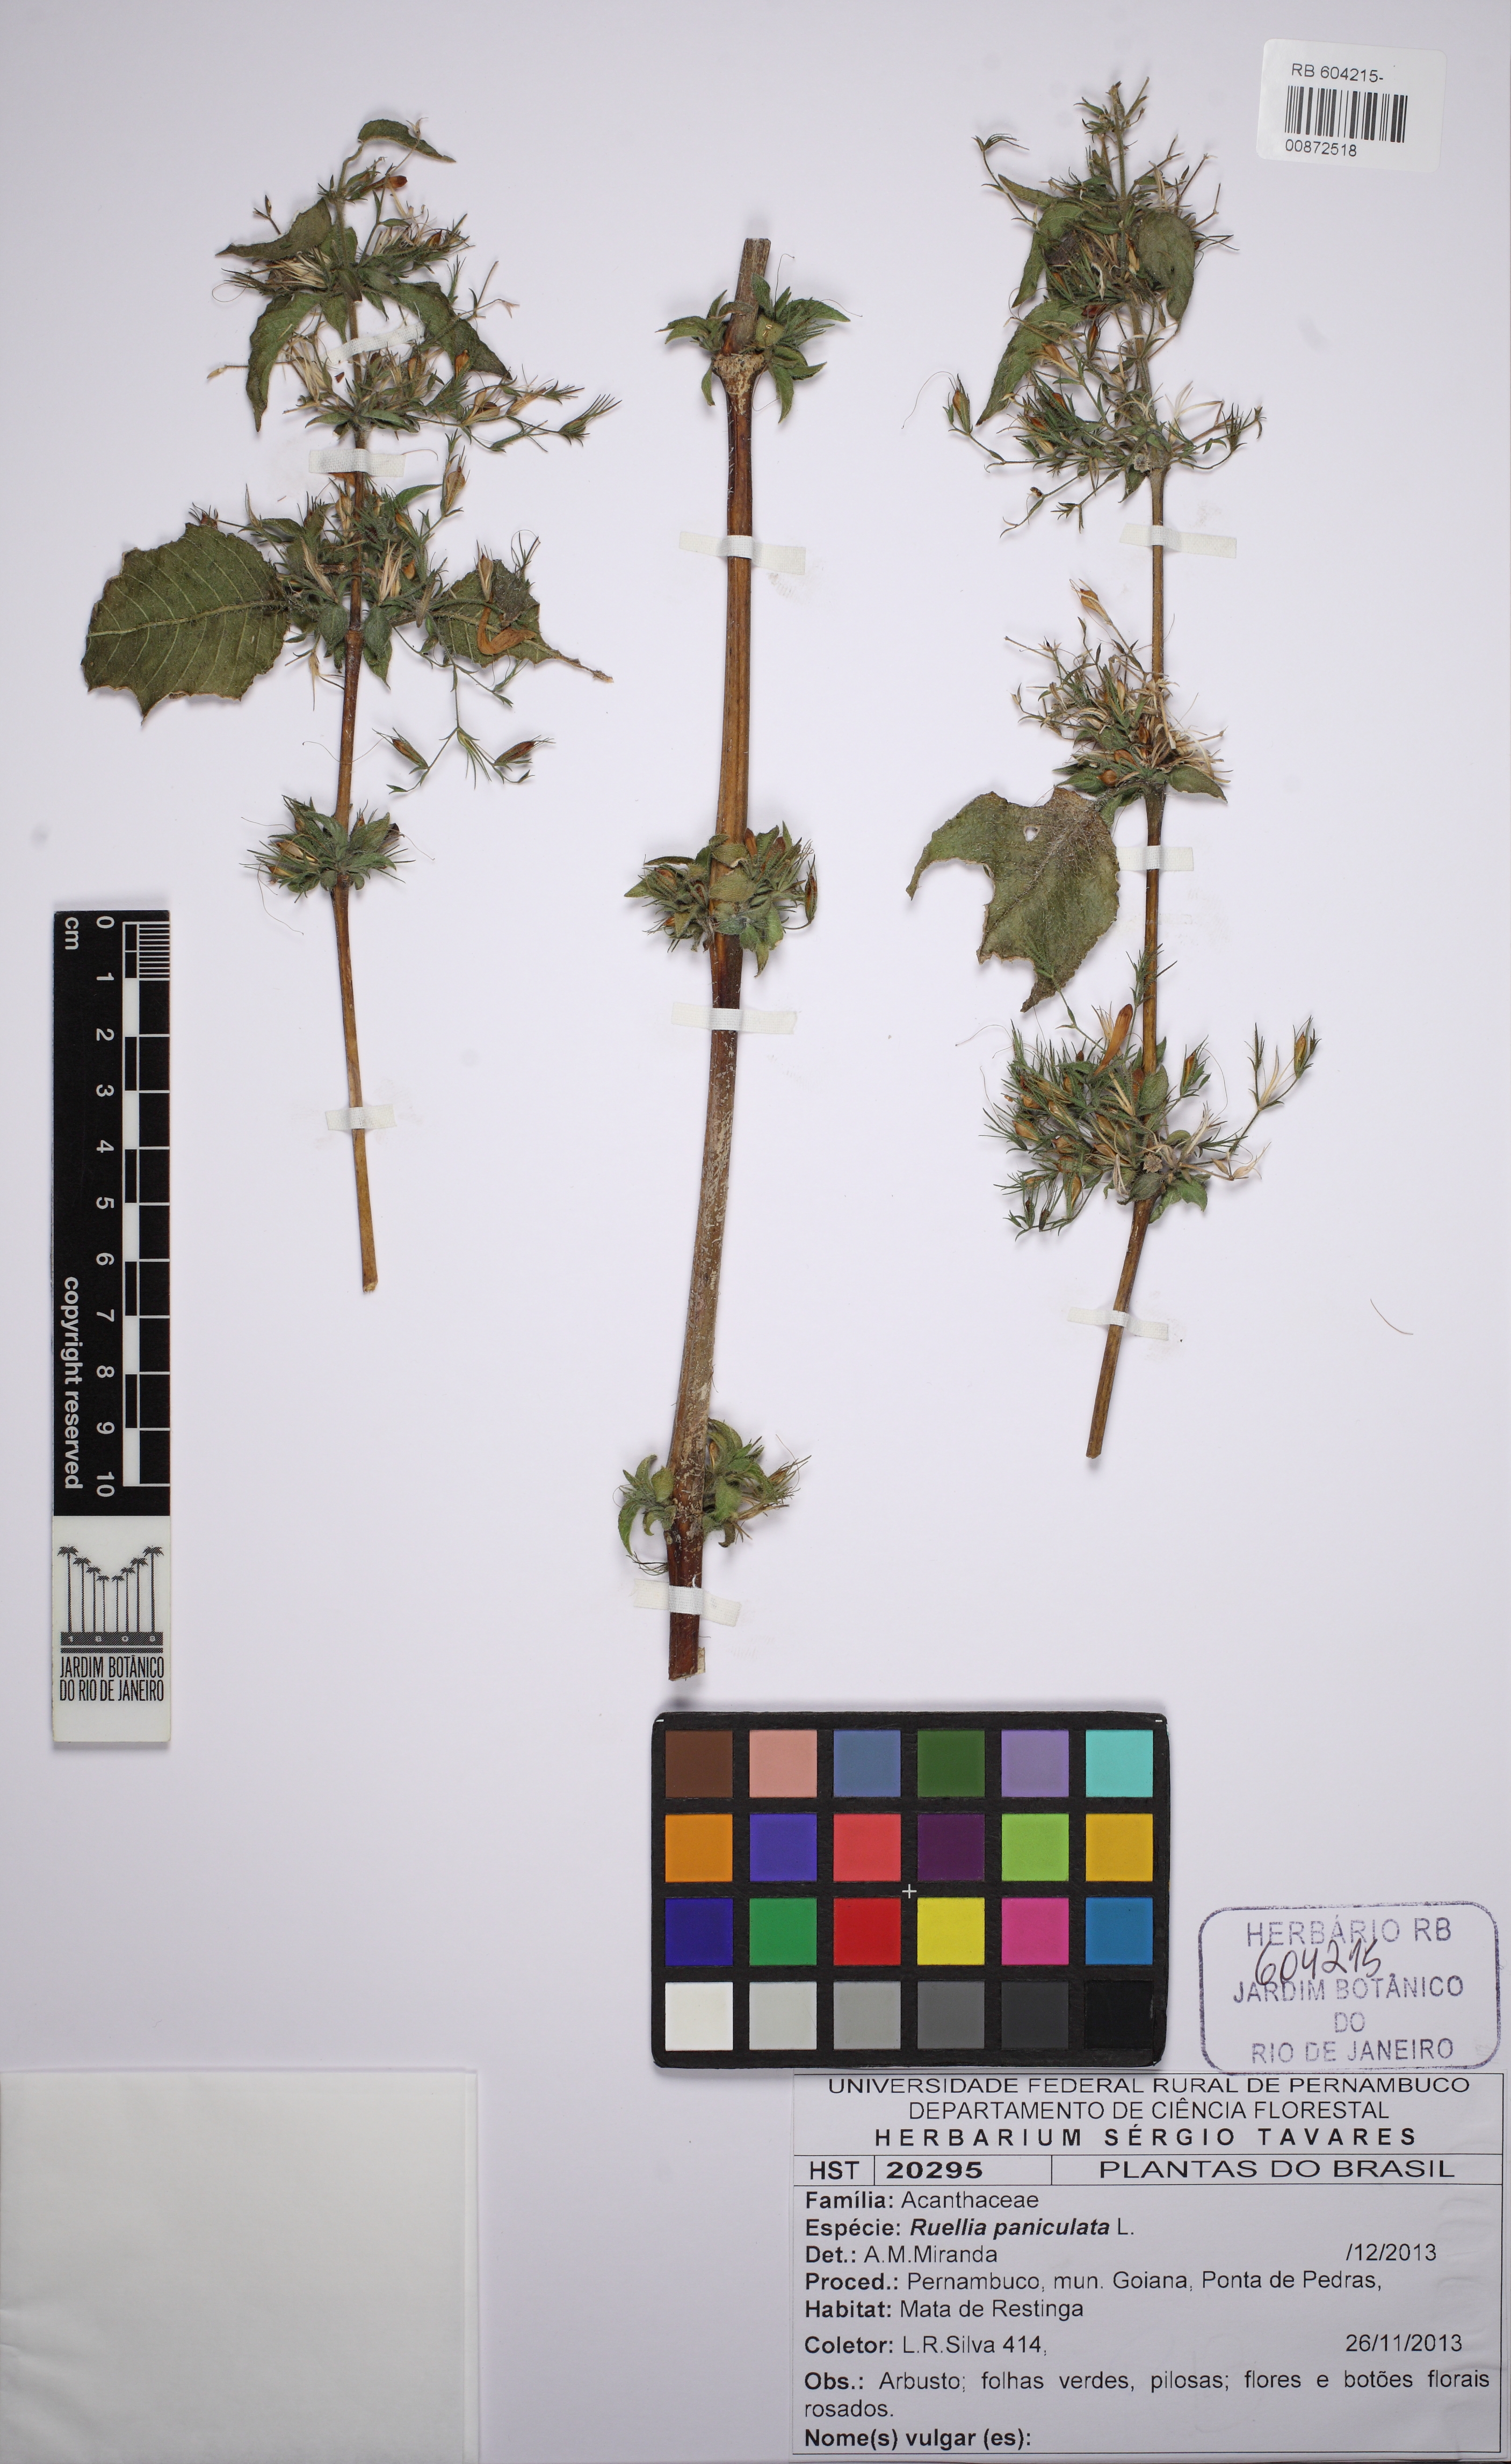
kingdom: Plantae
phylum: Tracheophyta
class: Magnoliopsida
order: Lamiales
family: Acanthaceae
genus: Ruellia
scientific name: Ruellia paniculata
